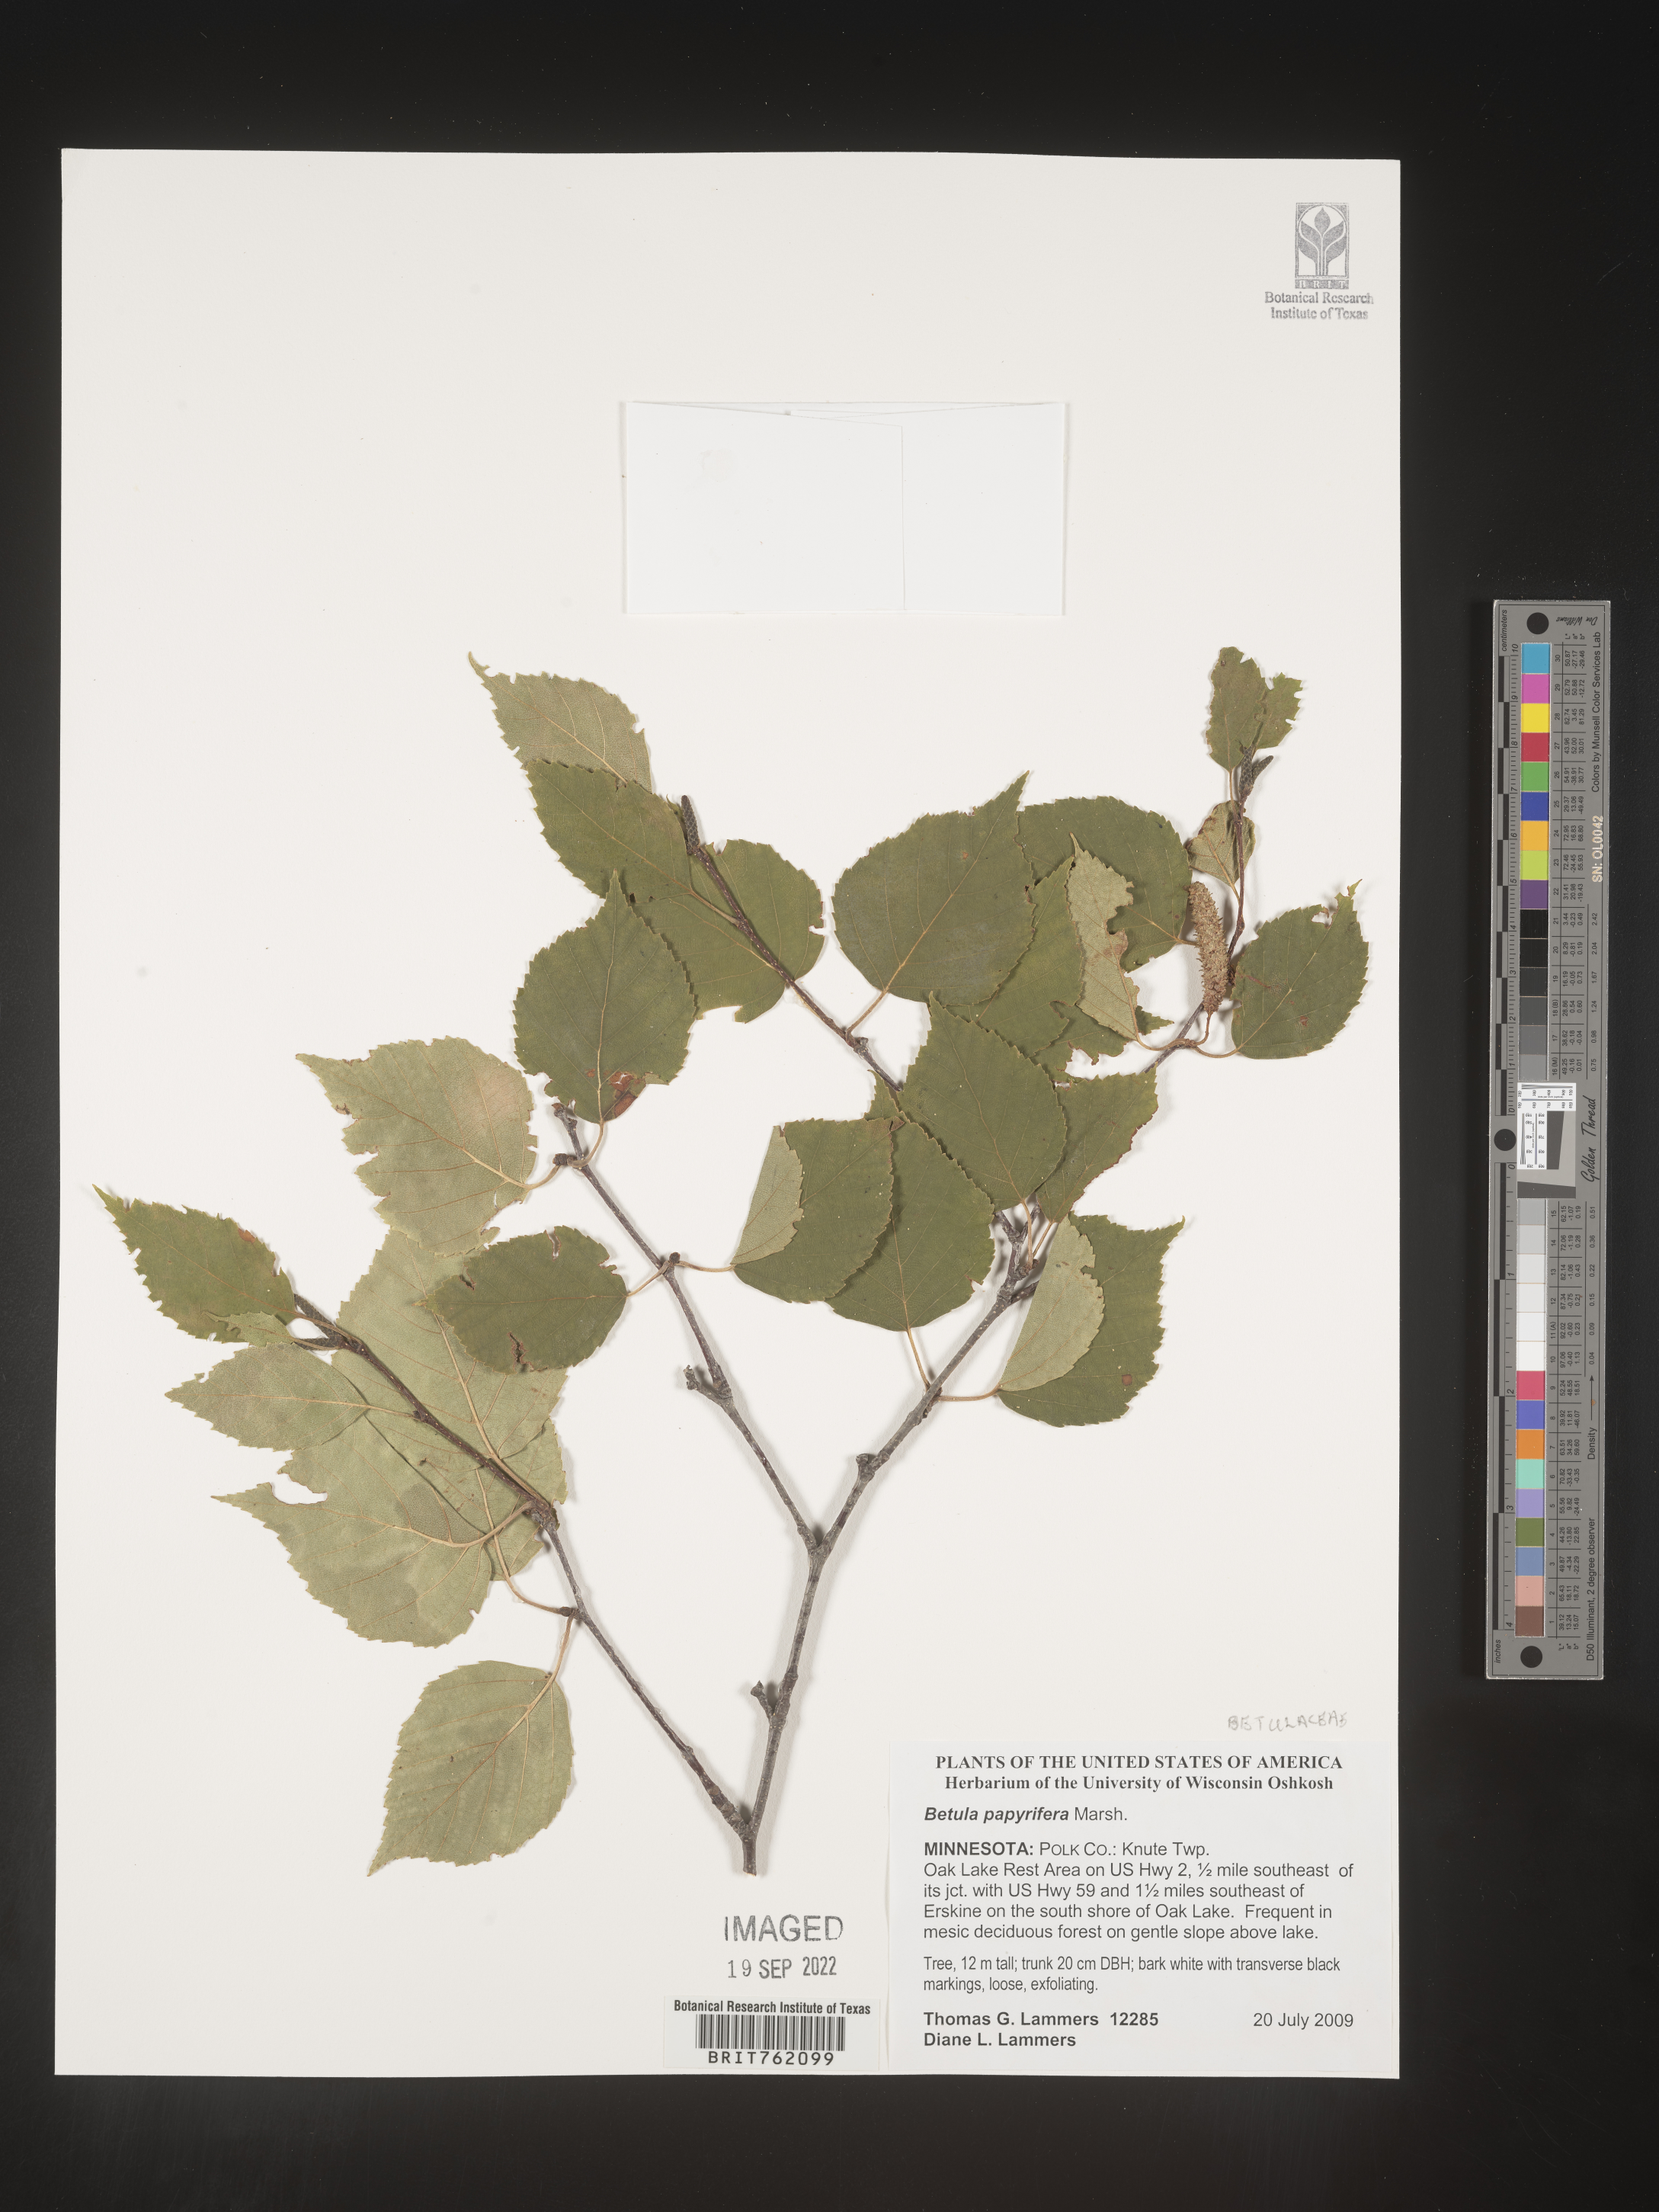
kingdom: Plantae
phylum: Tracheophyta
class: Magnoliopsida
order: Fagales
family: Betulaceae
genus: Betula
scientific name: Betula papyrifera
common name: Paper birch
